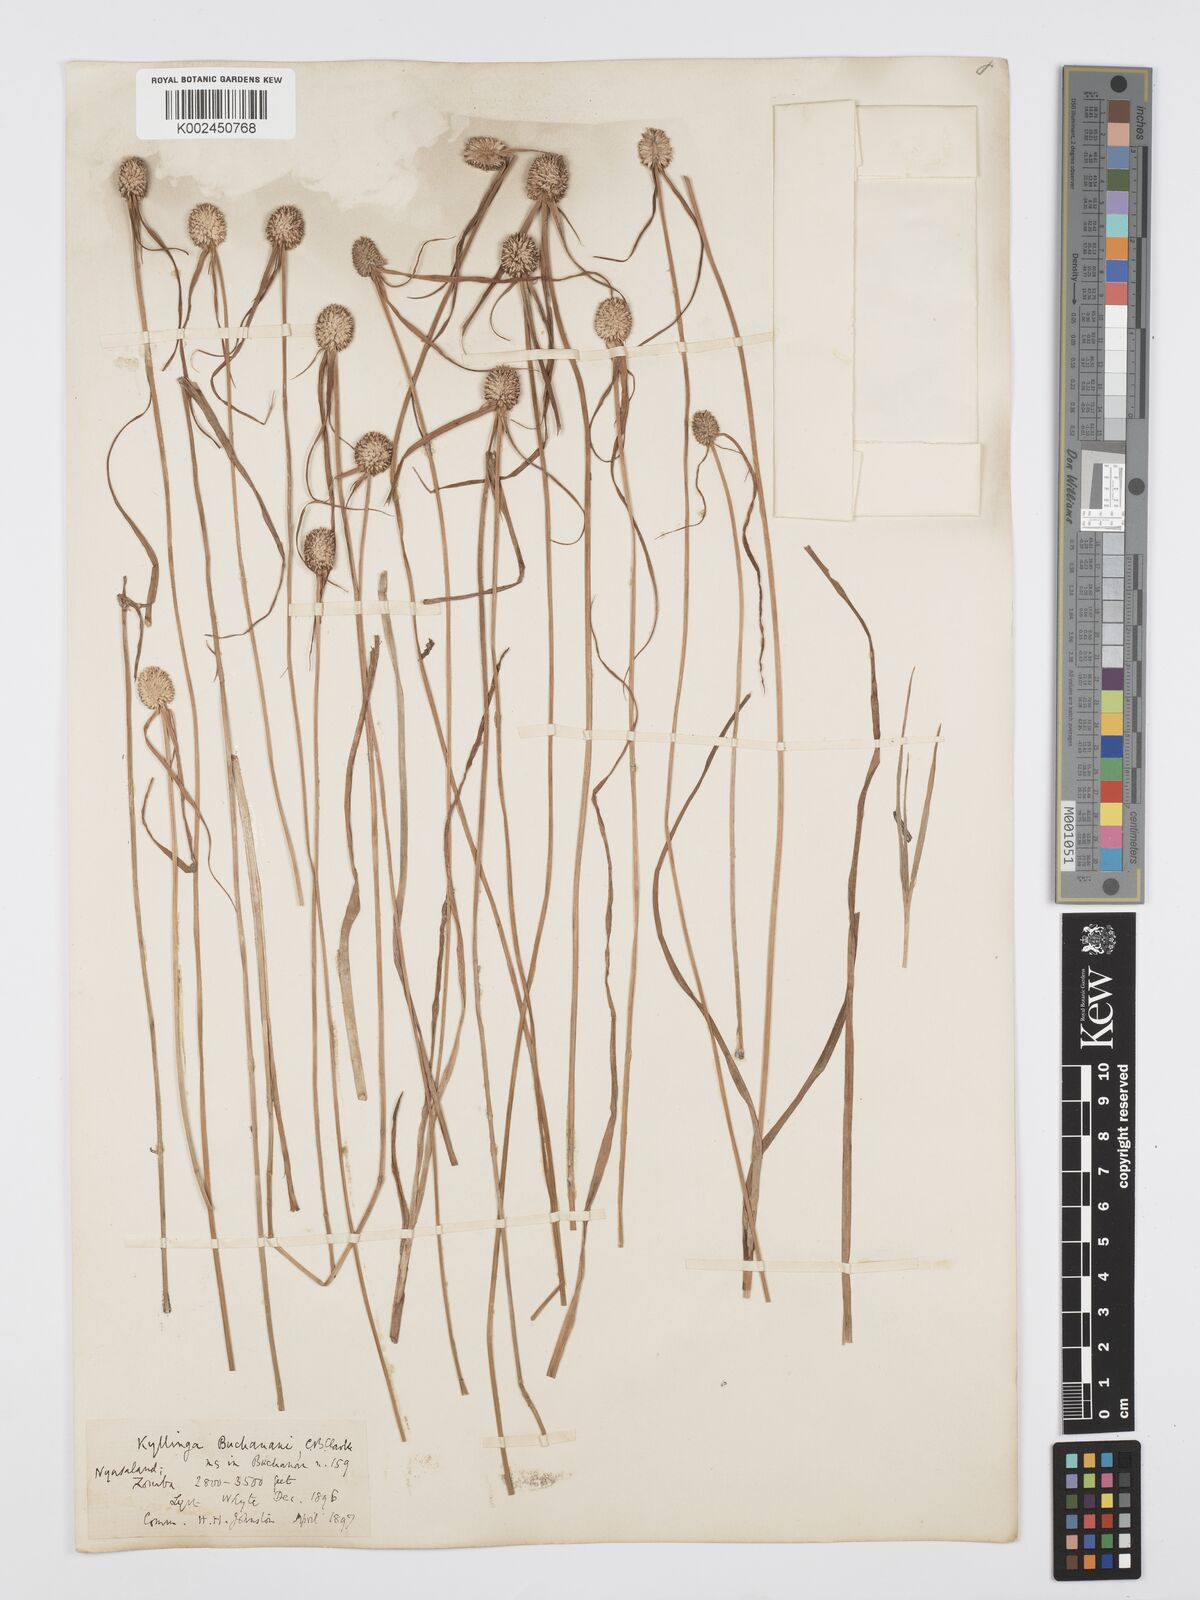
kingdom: Plantae
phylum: Tracheophyta
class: Liliopsida
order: Poales
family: Cyperaceae
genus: Cyperus
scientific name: Cyperus rukwanus
